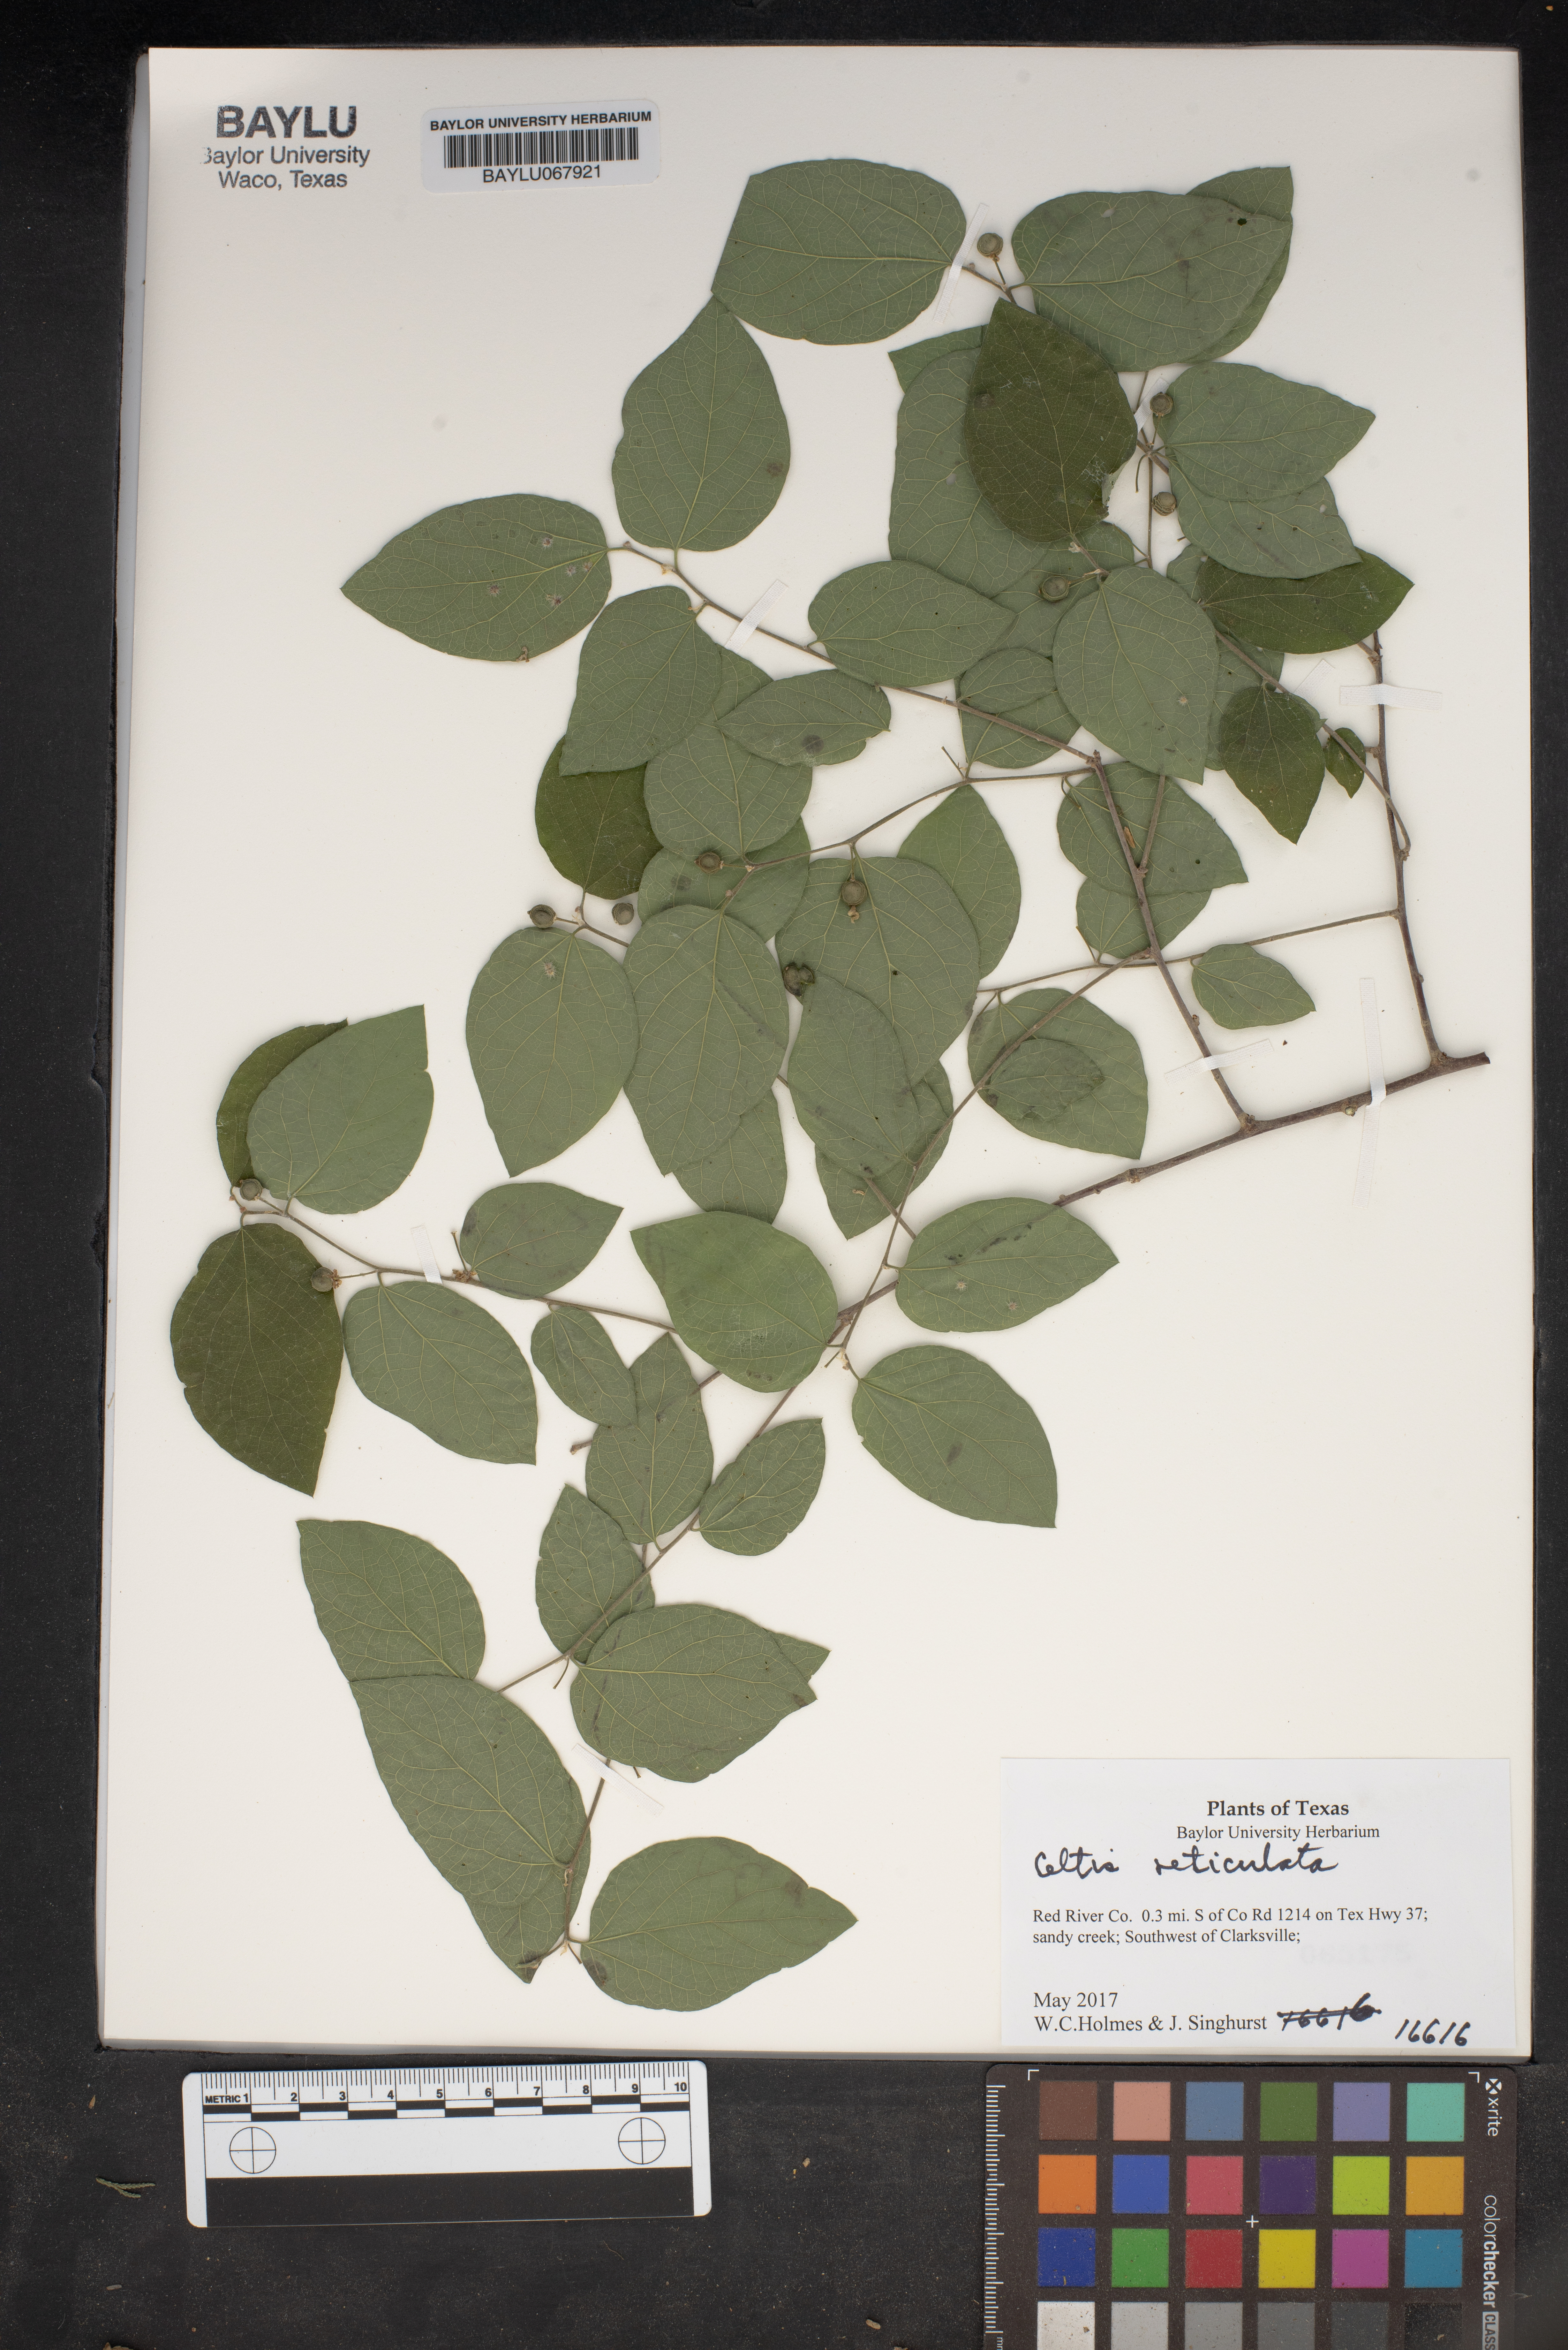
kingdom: Plantae
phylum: Tracheophyta
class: Magnoliopsida
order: Rosales
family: Cannabaceae
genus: Celtis
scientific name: Celtis reticulata
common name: Netleaf hackberry
